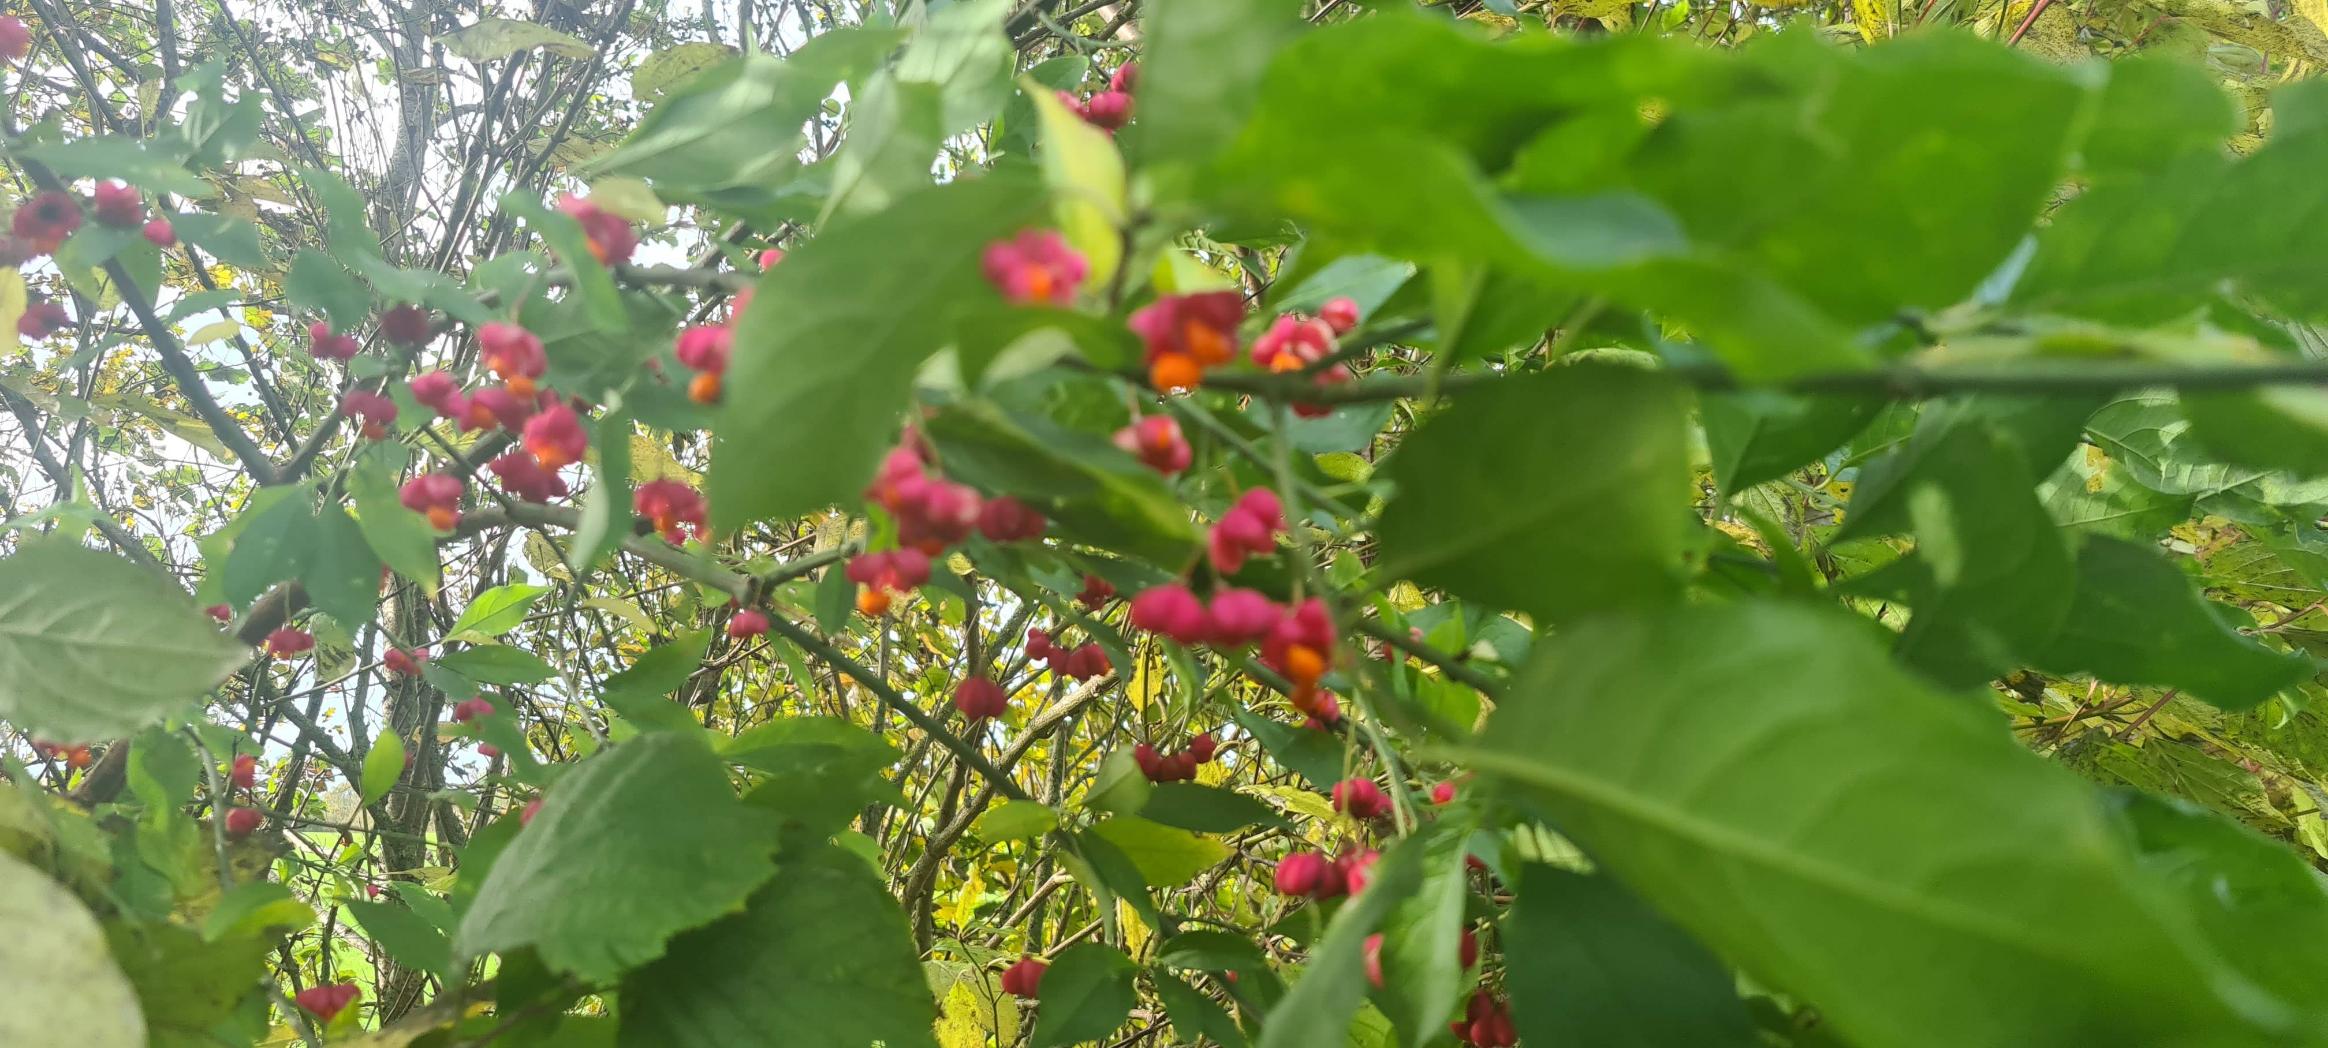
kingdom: Plantae
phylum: Tracheophyta
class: Magnoliopsida
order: Celastrales
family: Celastraceae
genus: Euonymus
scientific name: Euonymus europaeus
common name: Benved
